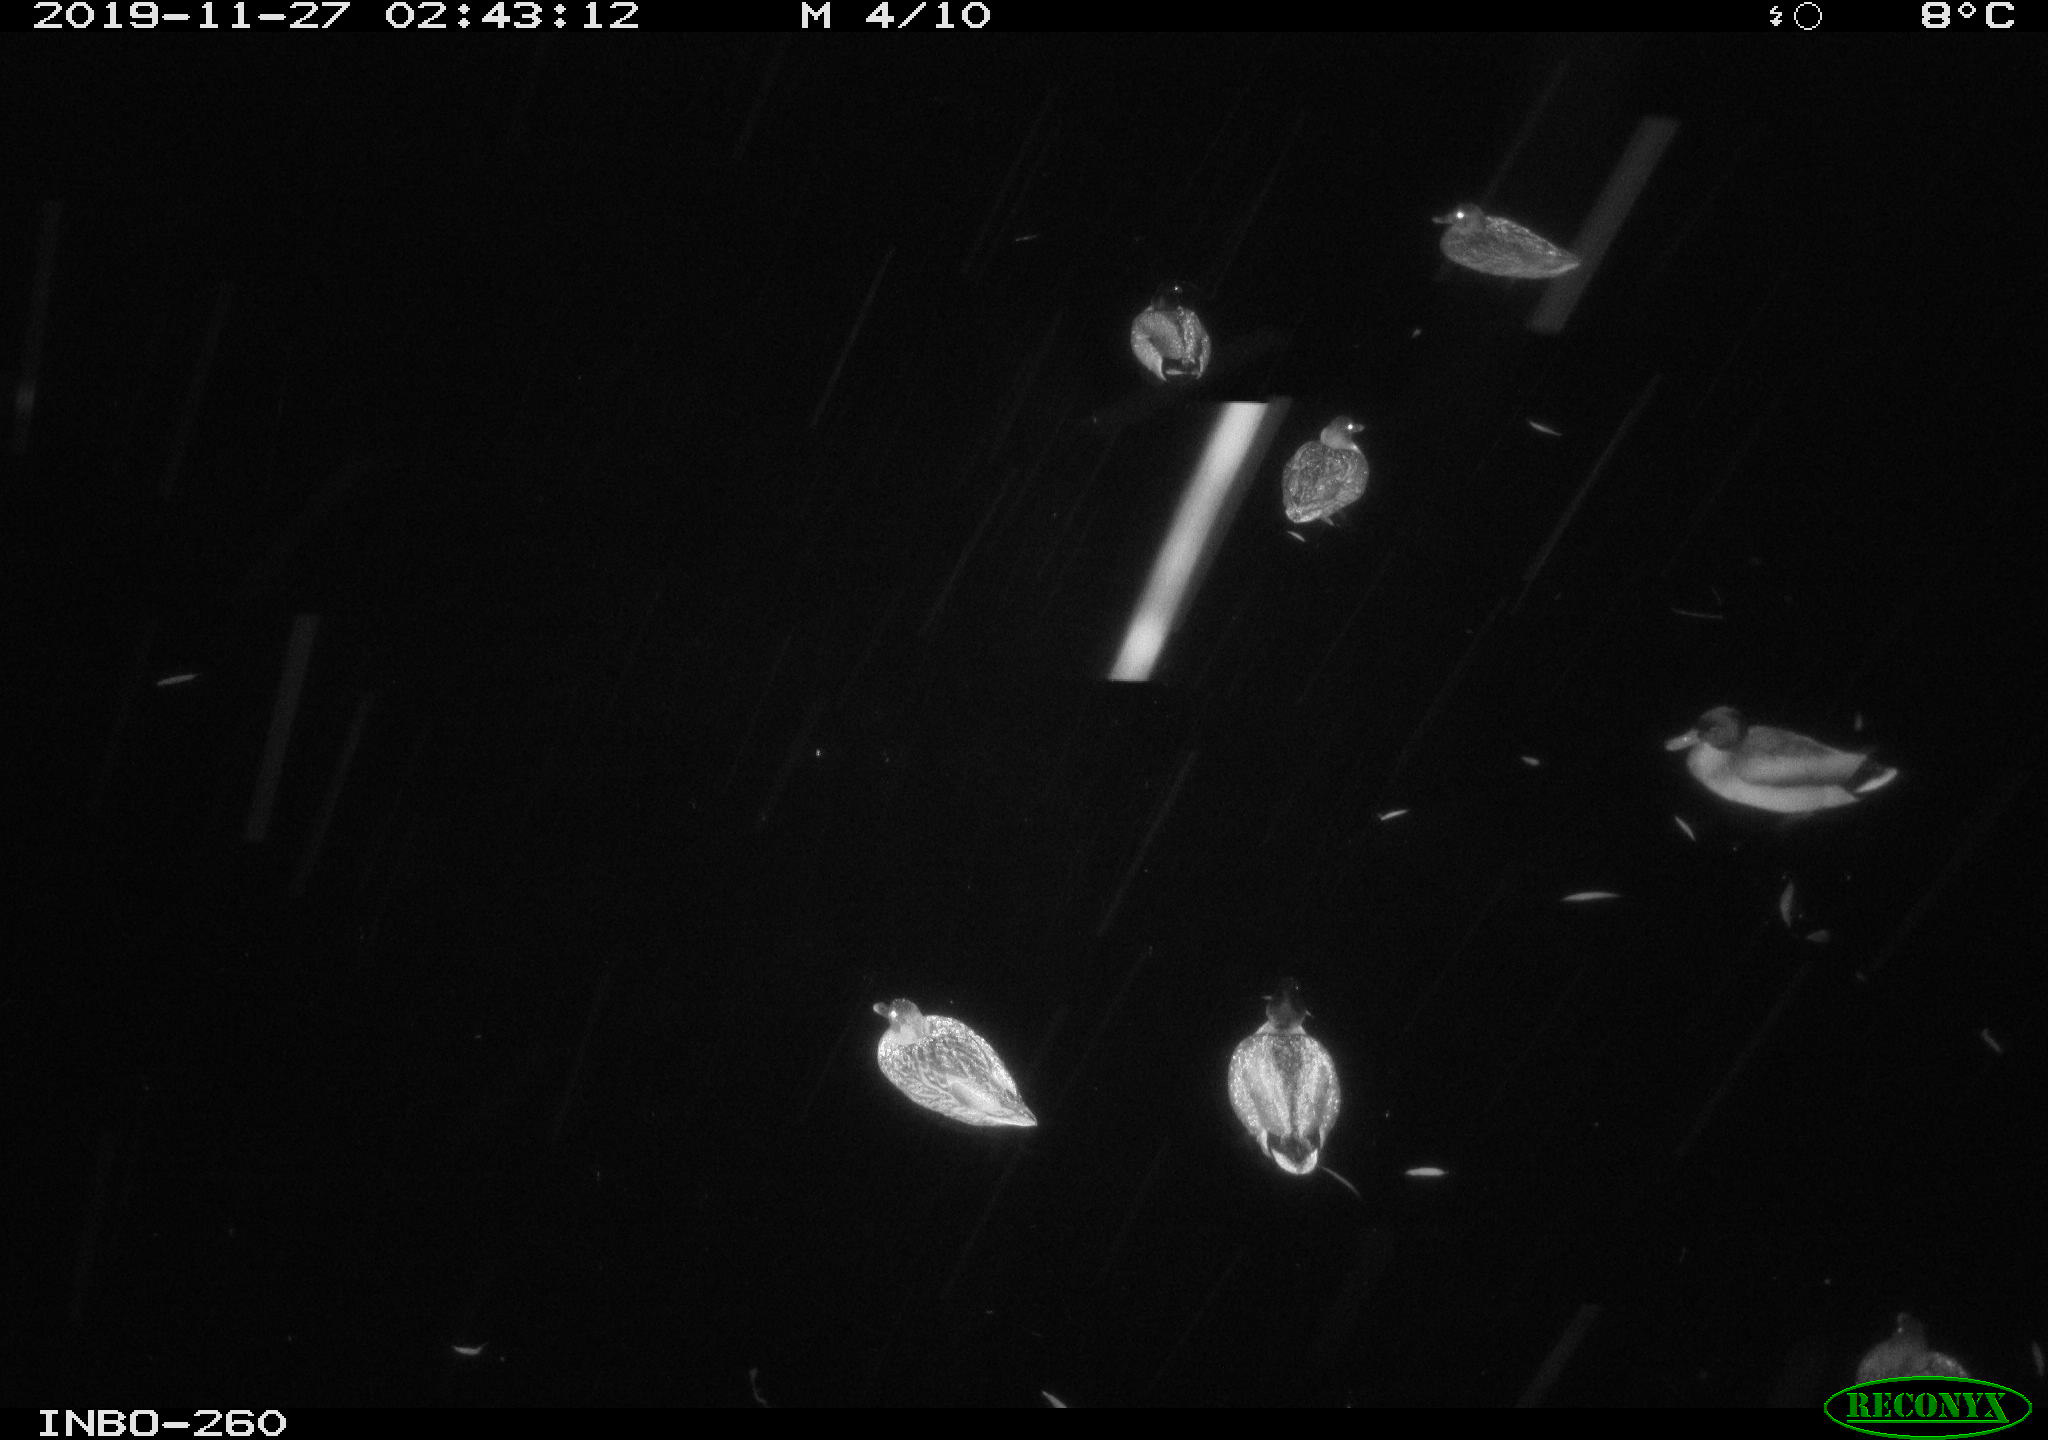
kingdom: Animalia
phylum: Chordata
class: Aves
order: Anseriformes
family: Anatidae
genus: Anas
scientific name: Anas platyrhynchos
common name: Mallard
